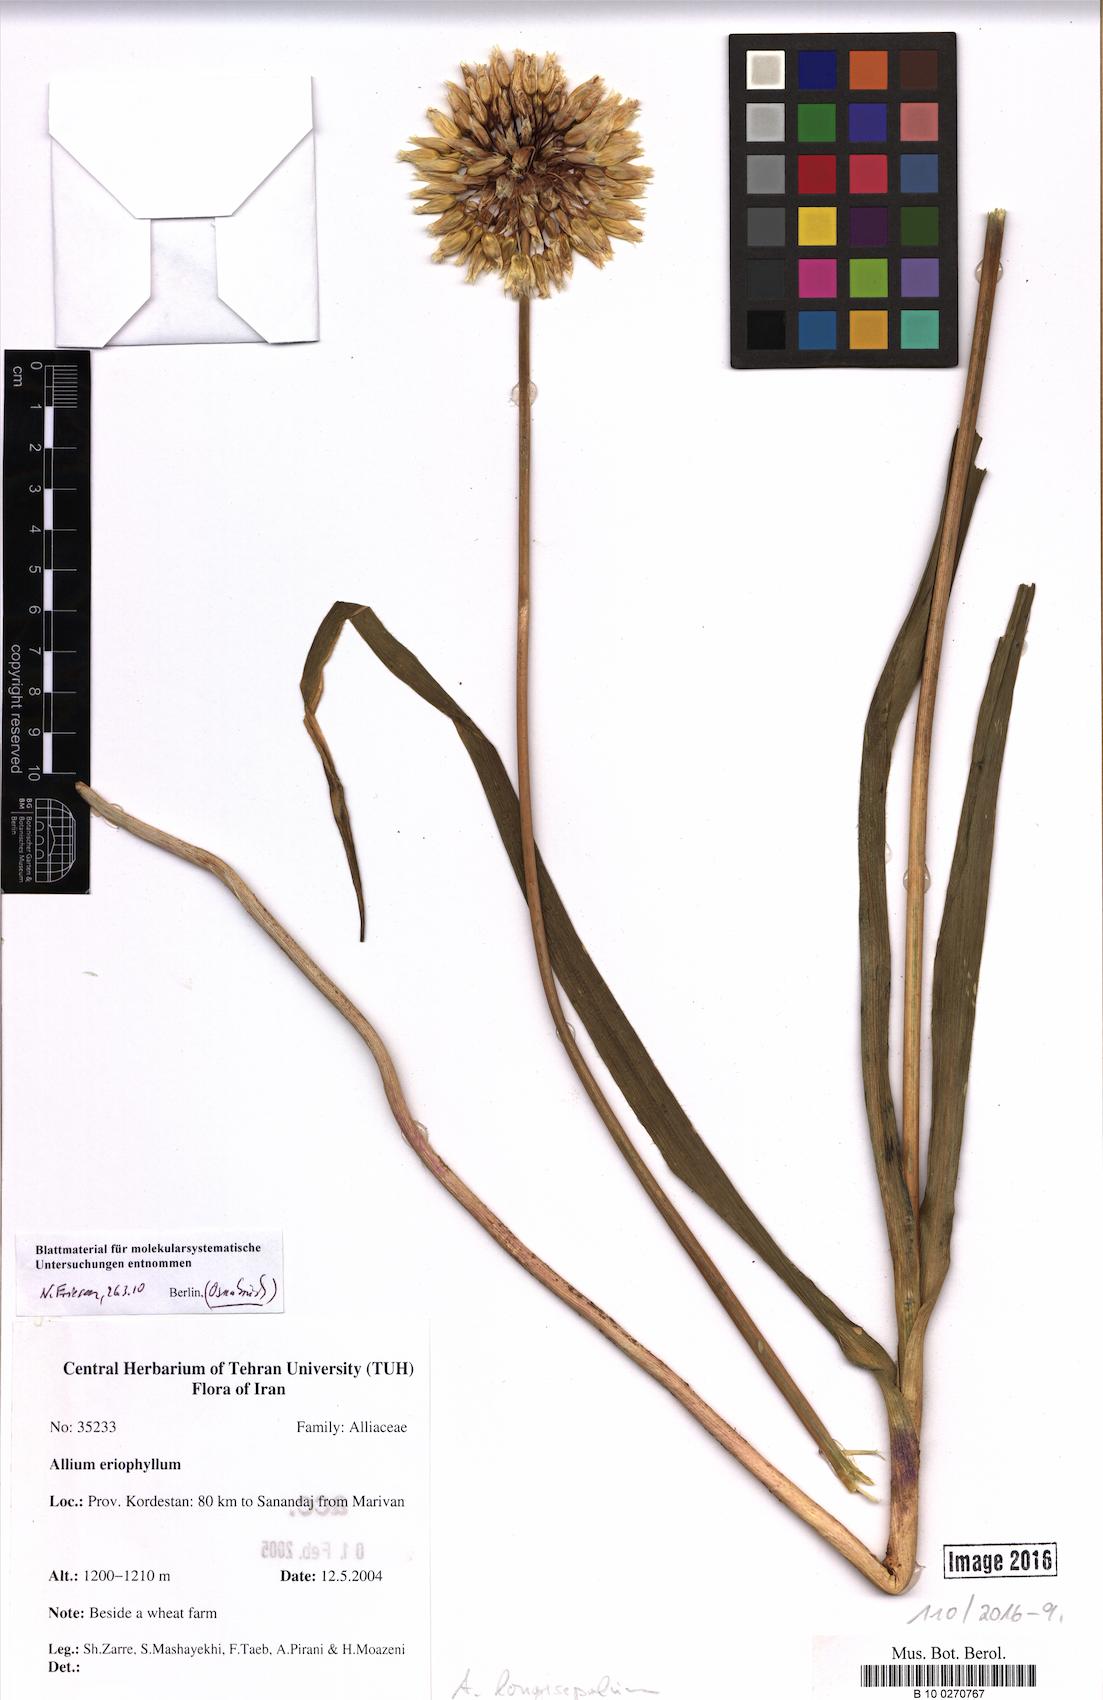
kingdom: Plantae
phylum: Tracheophyta
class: Liliopsida
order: Asparagales
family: Amaryllidaceae
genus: Allium
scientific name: Allium longisepalum
